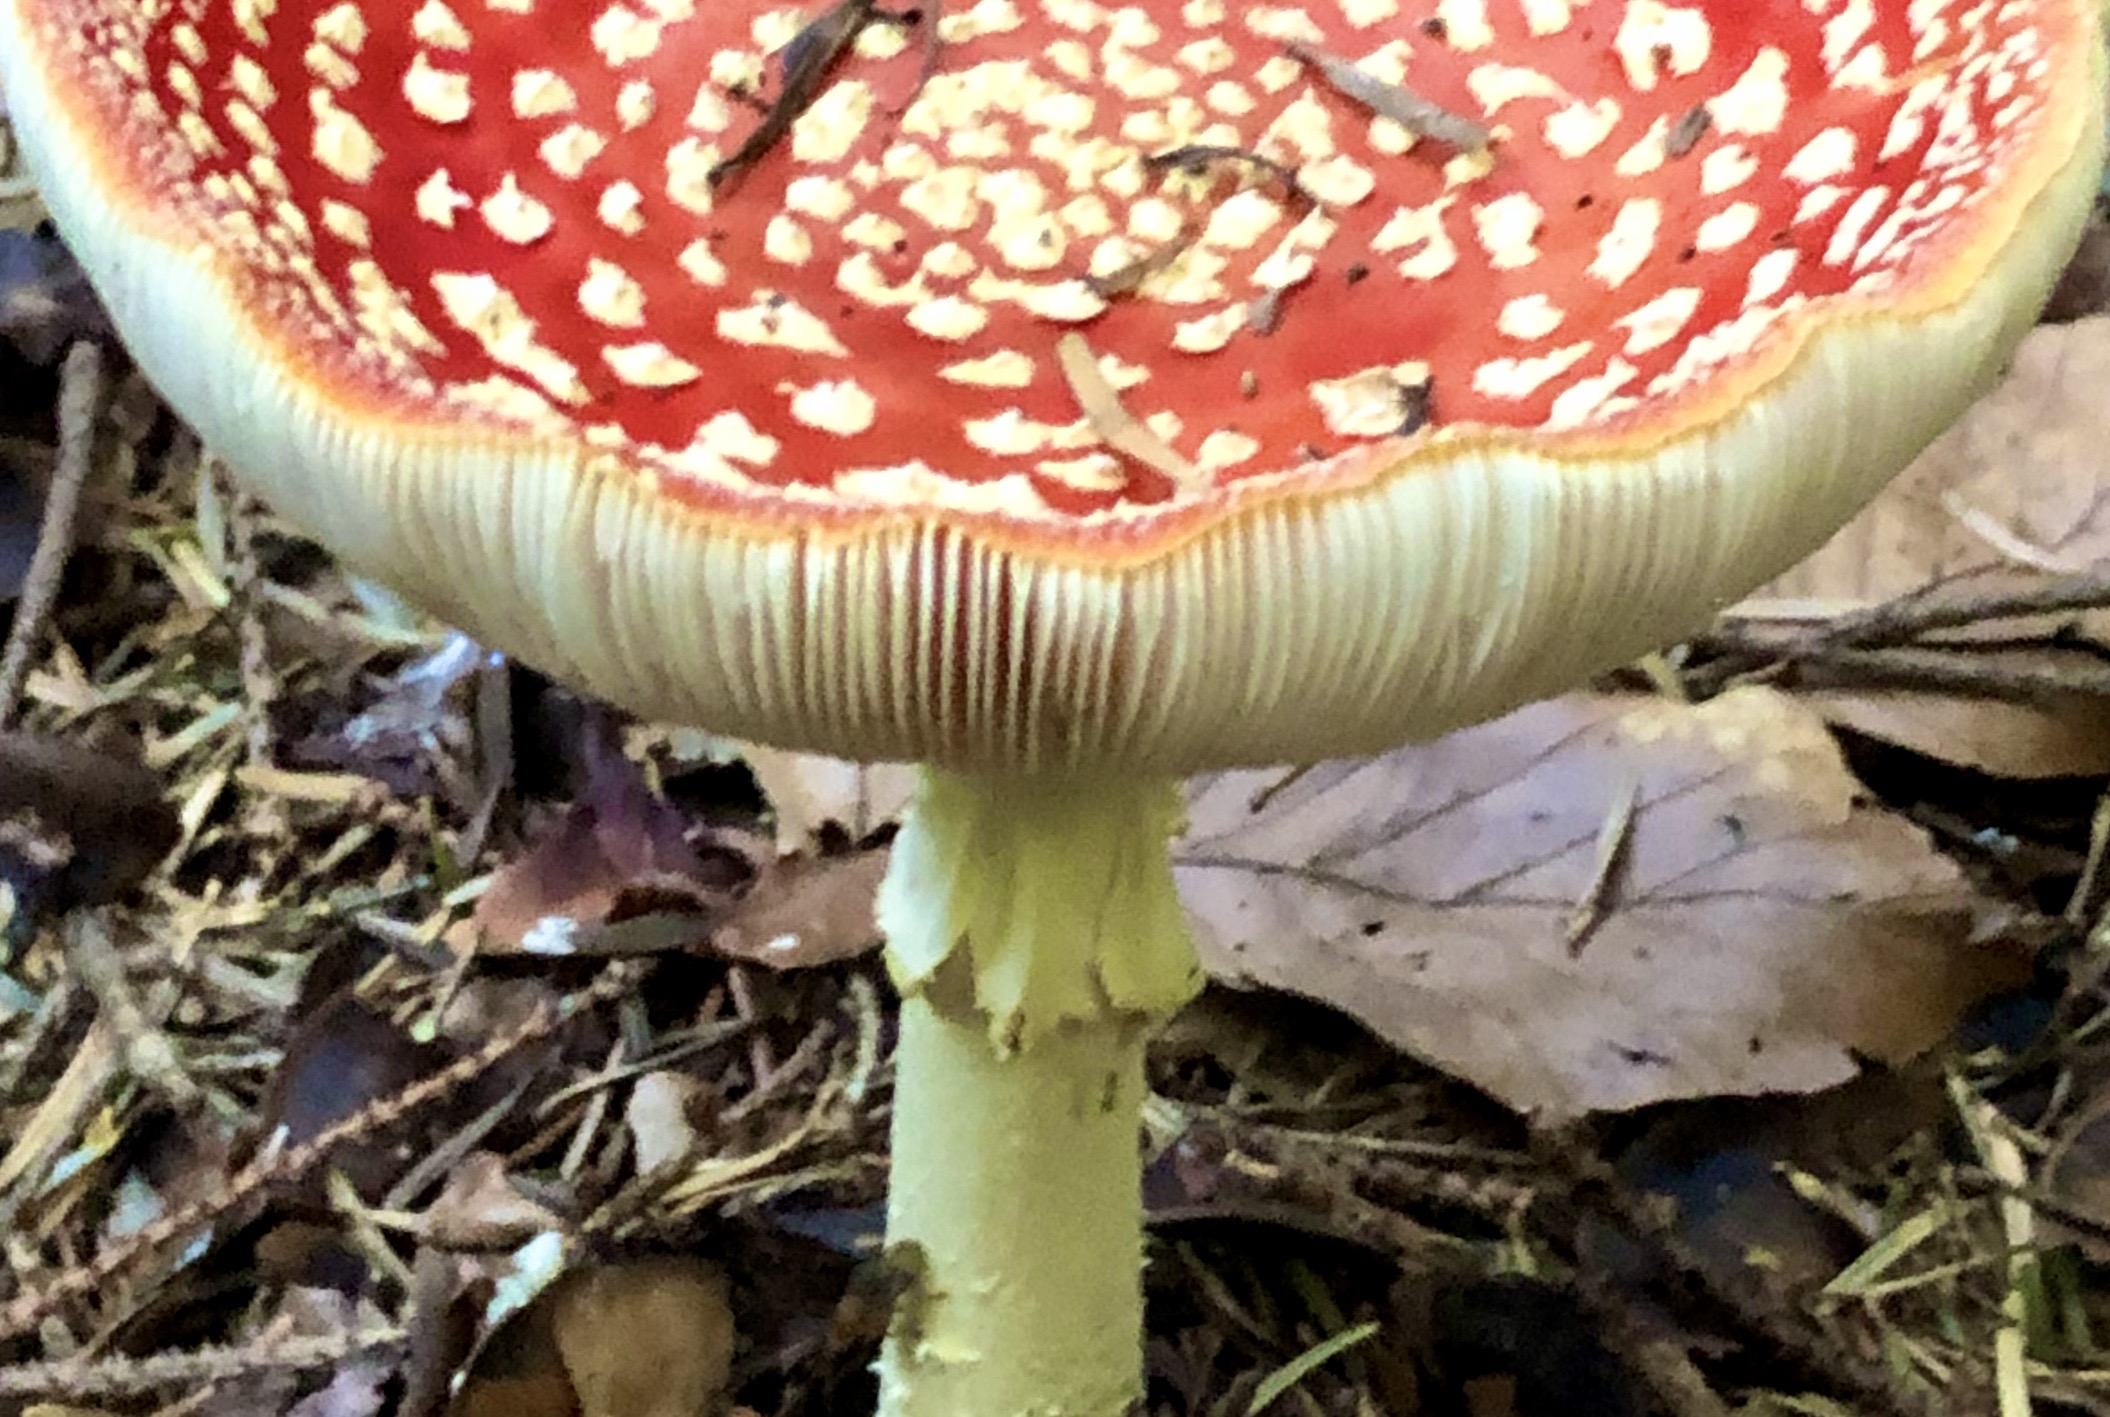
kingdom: Fungi
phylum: Basidiomycota
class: Agaricomycetes
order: Agaricales
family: Amanitaceae
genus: Amanita
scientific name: Amanita muscaria
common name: rød fluesvamp
